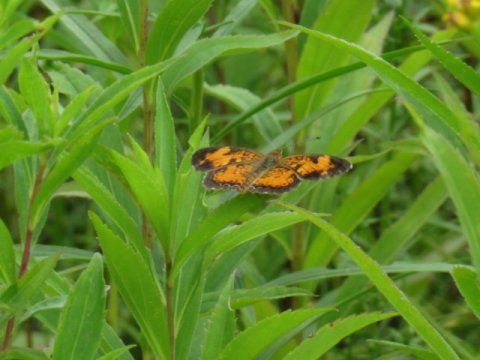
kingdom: Animalia
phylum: Arthropoda
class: Insecta
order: Lepidoptera
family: Nymphalidae
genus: Phyciodes
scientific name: Phyciodes tharos
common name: Pearl Crescent
